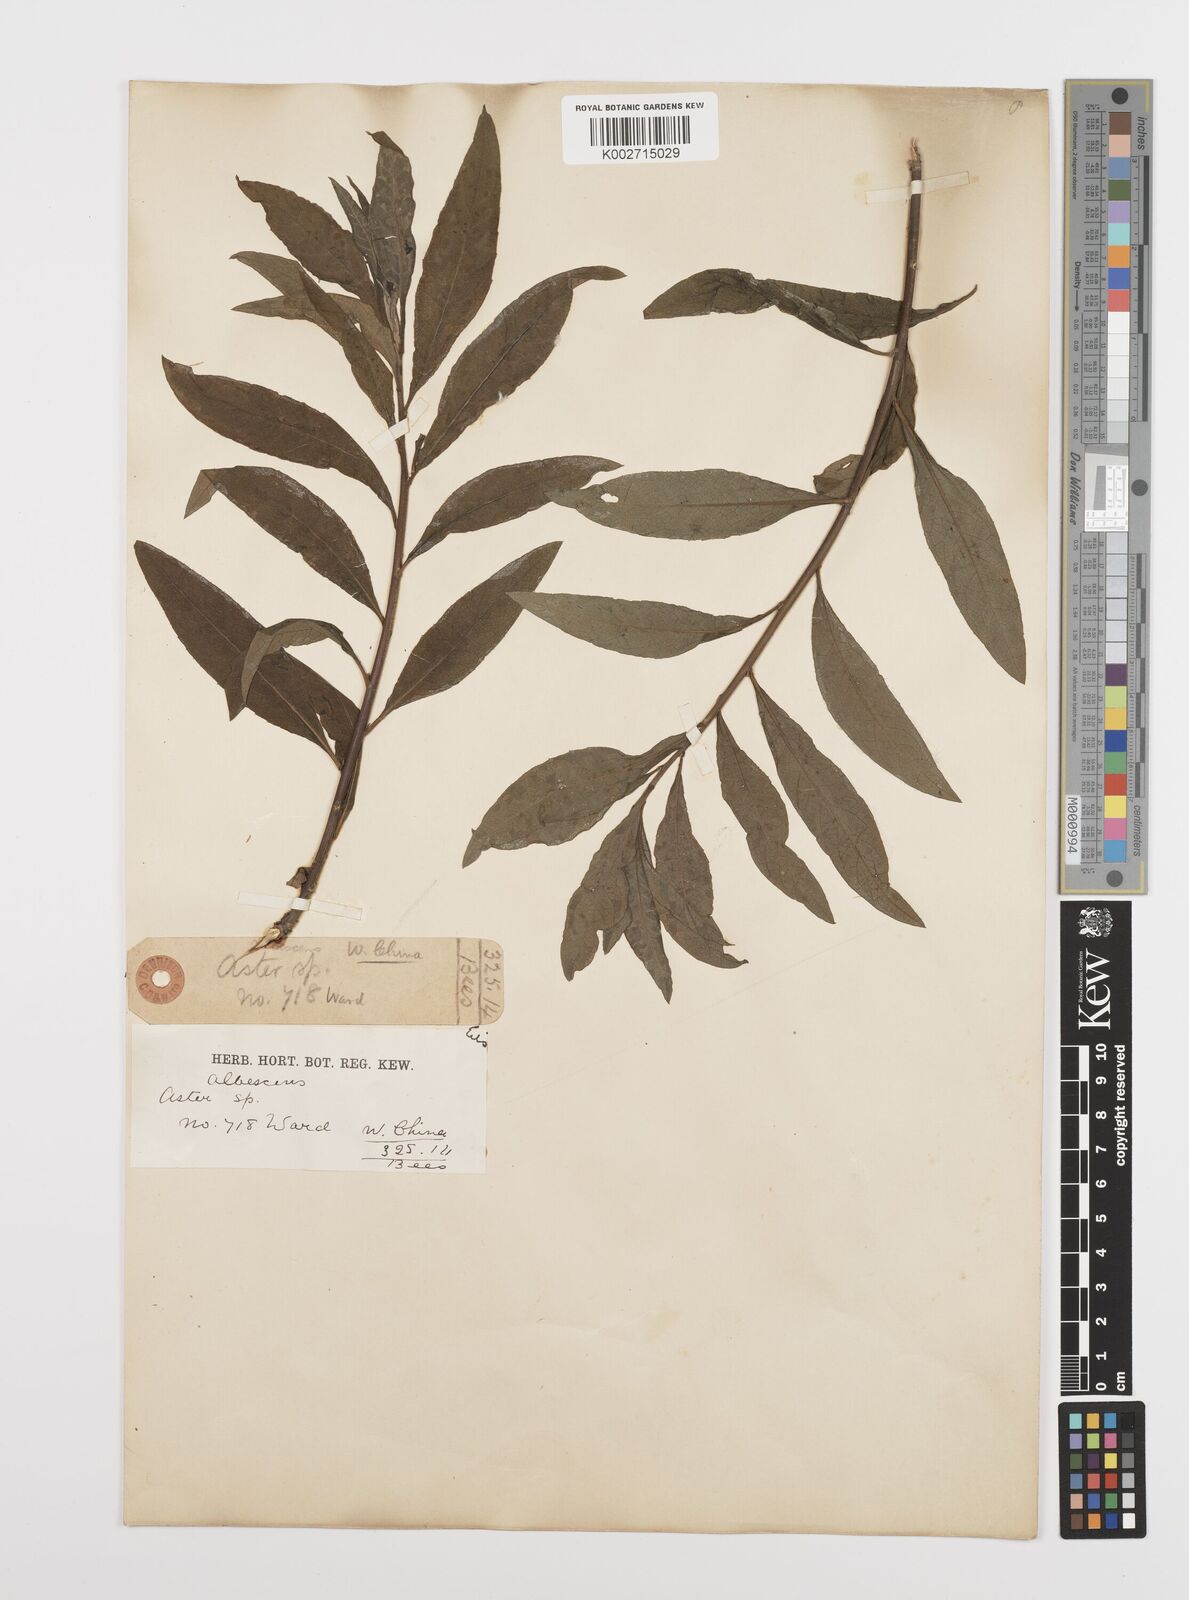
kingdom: Plantae
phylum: Tracheophyta
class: Magnoliopsida
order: Asterales
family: Asteraceae
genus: Sinosidus
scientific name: Sinosidus albescens
